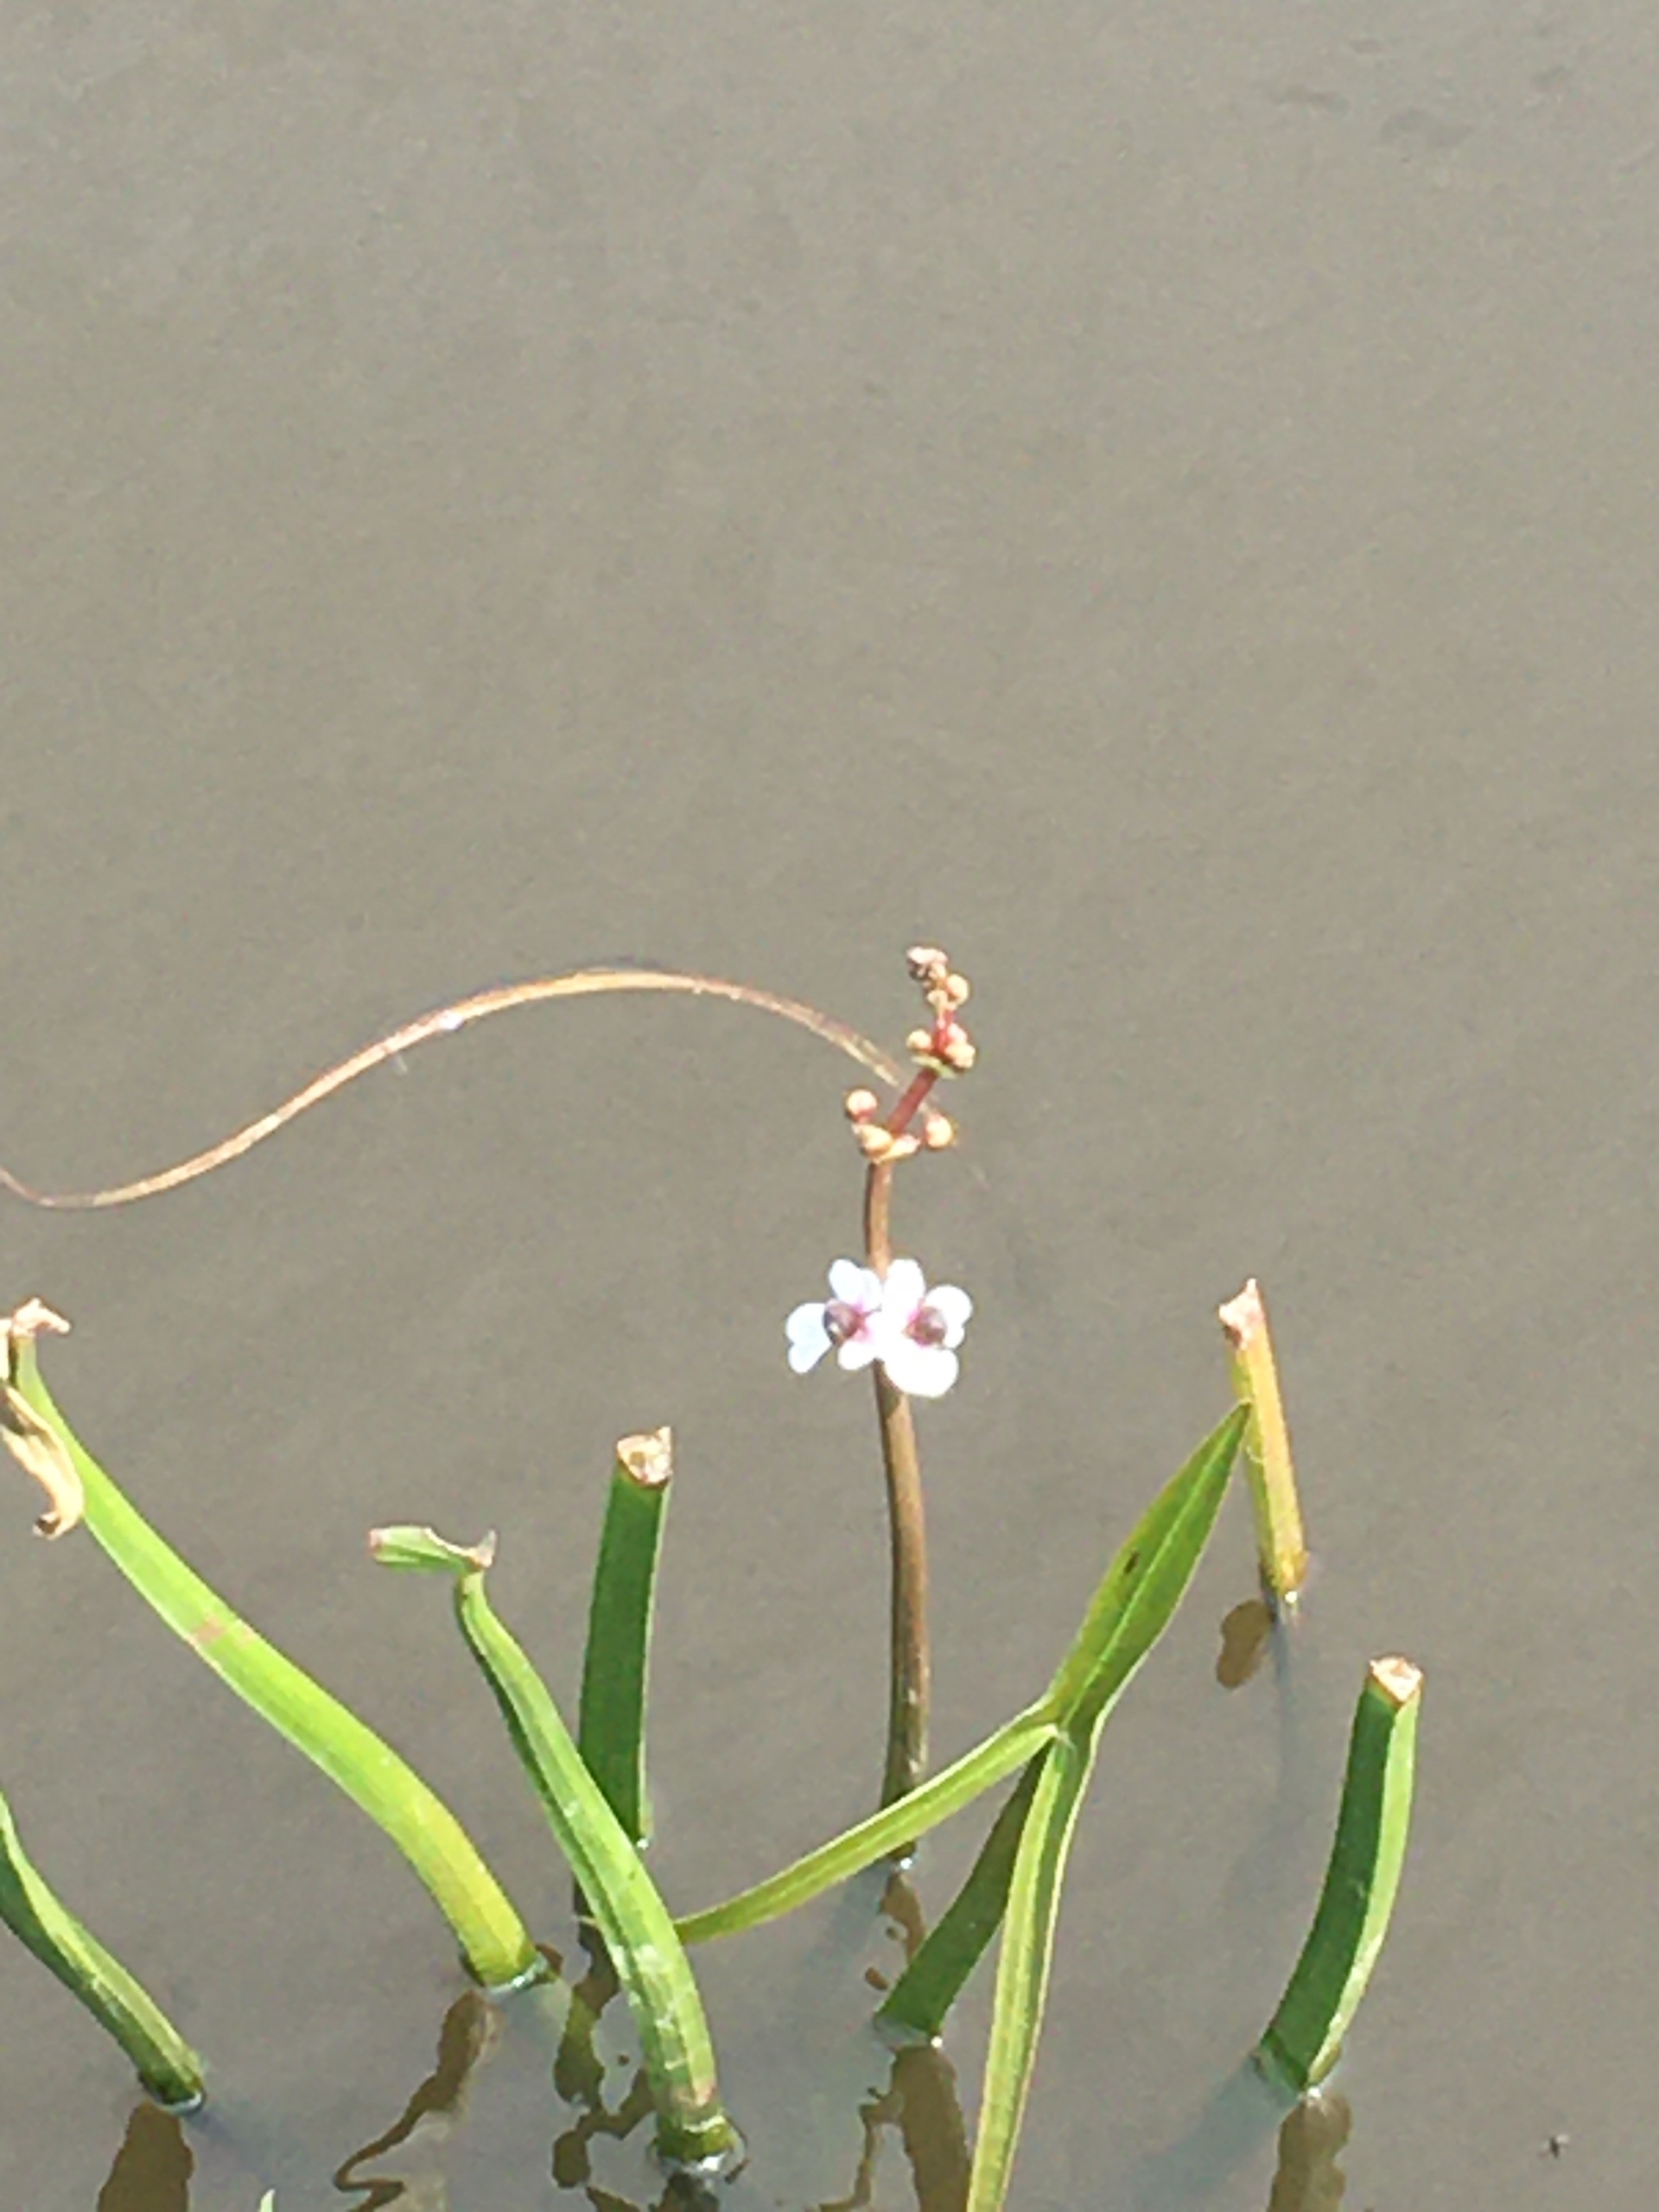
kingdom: Plantae
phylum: Tracheophyta
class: Liliopsida
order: Alismatales
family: Alismataceae
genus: Sagittaria
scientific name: Sagittaria sagittifolia
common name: Pilblad
